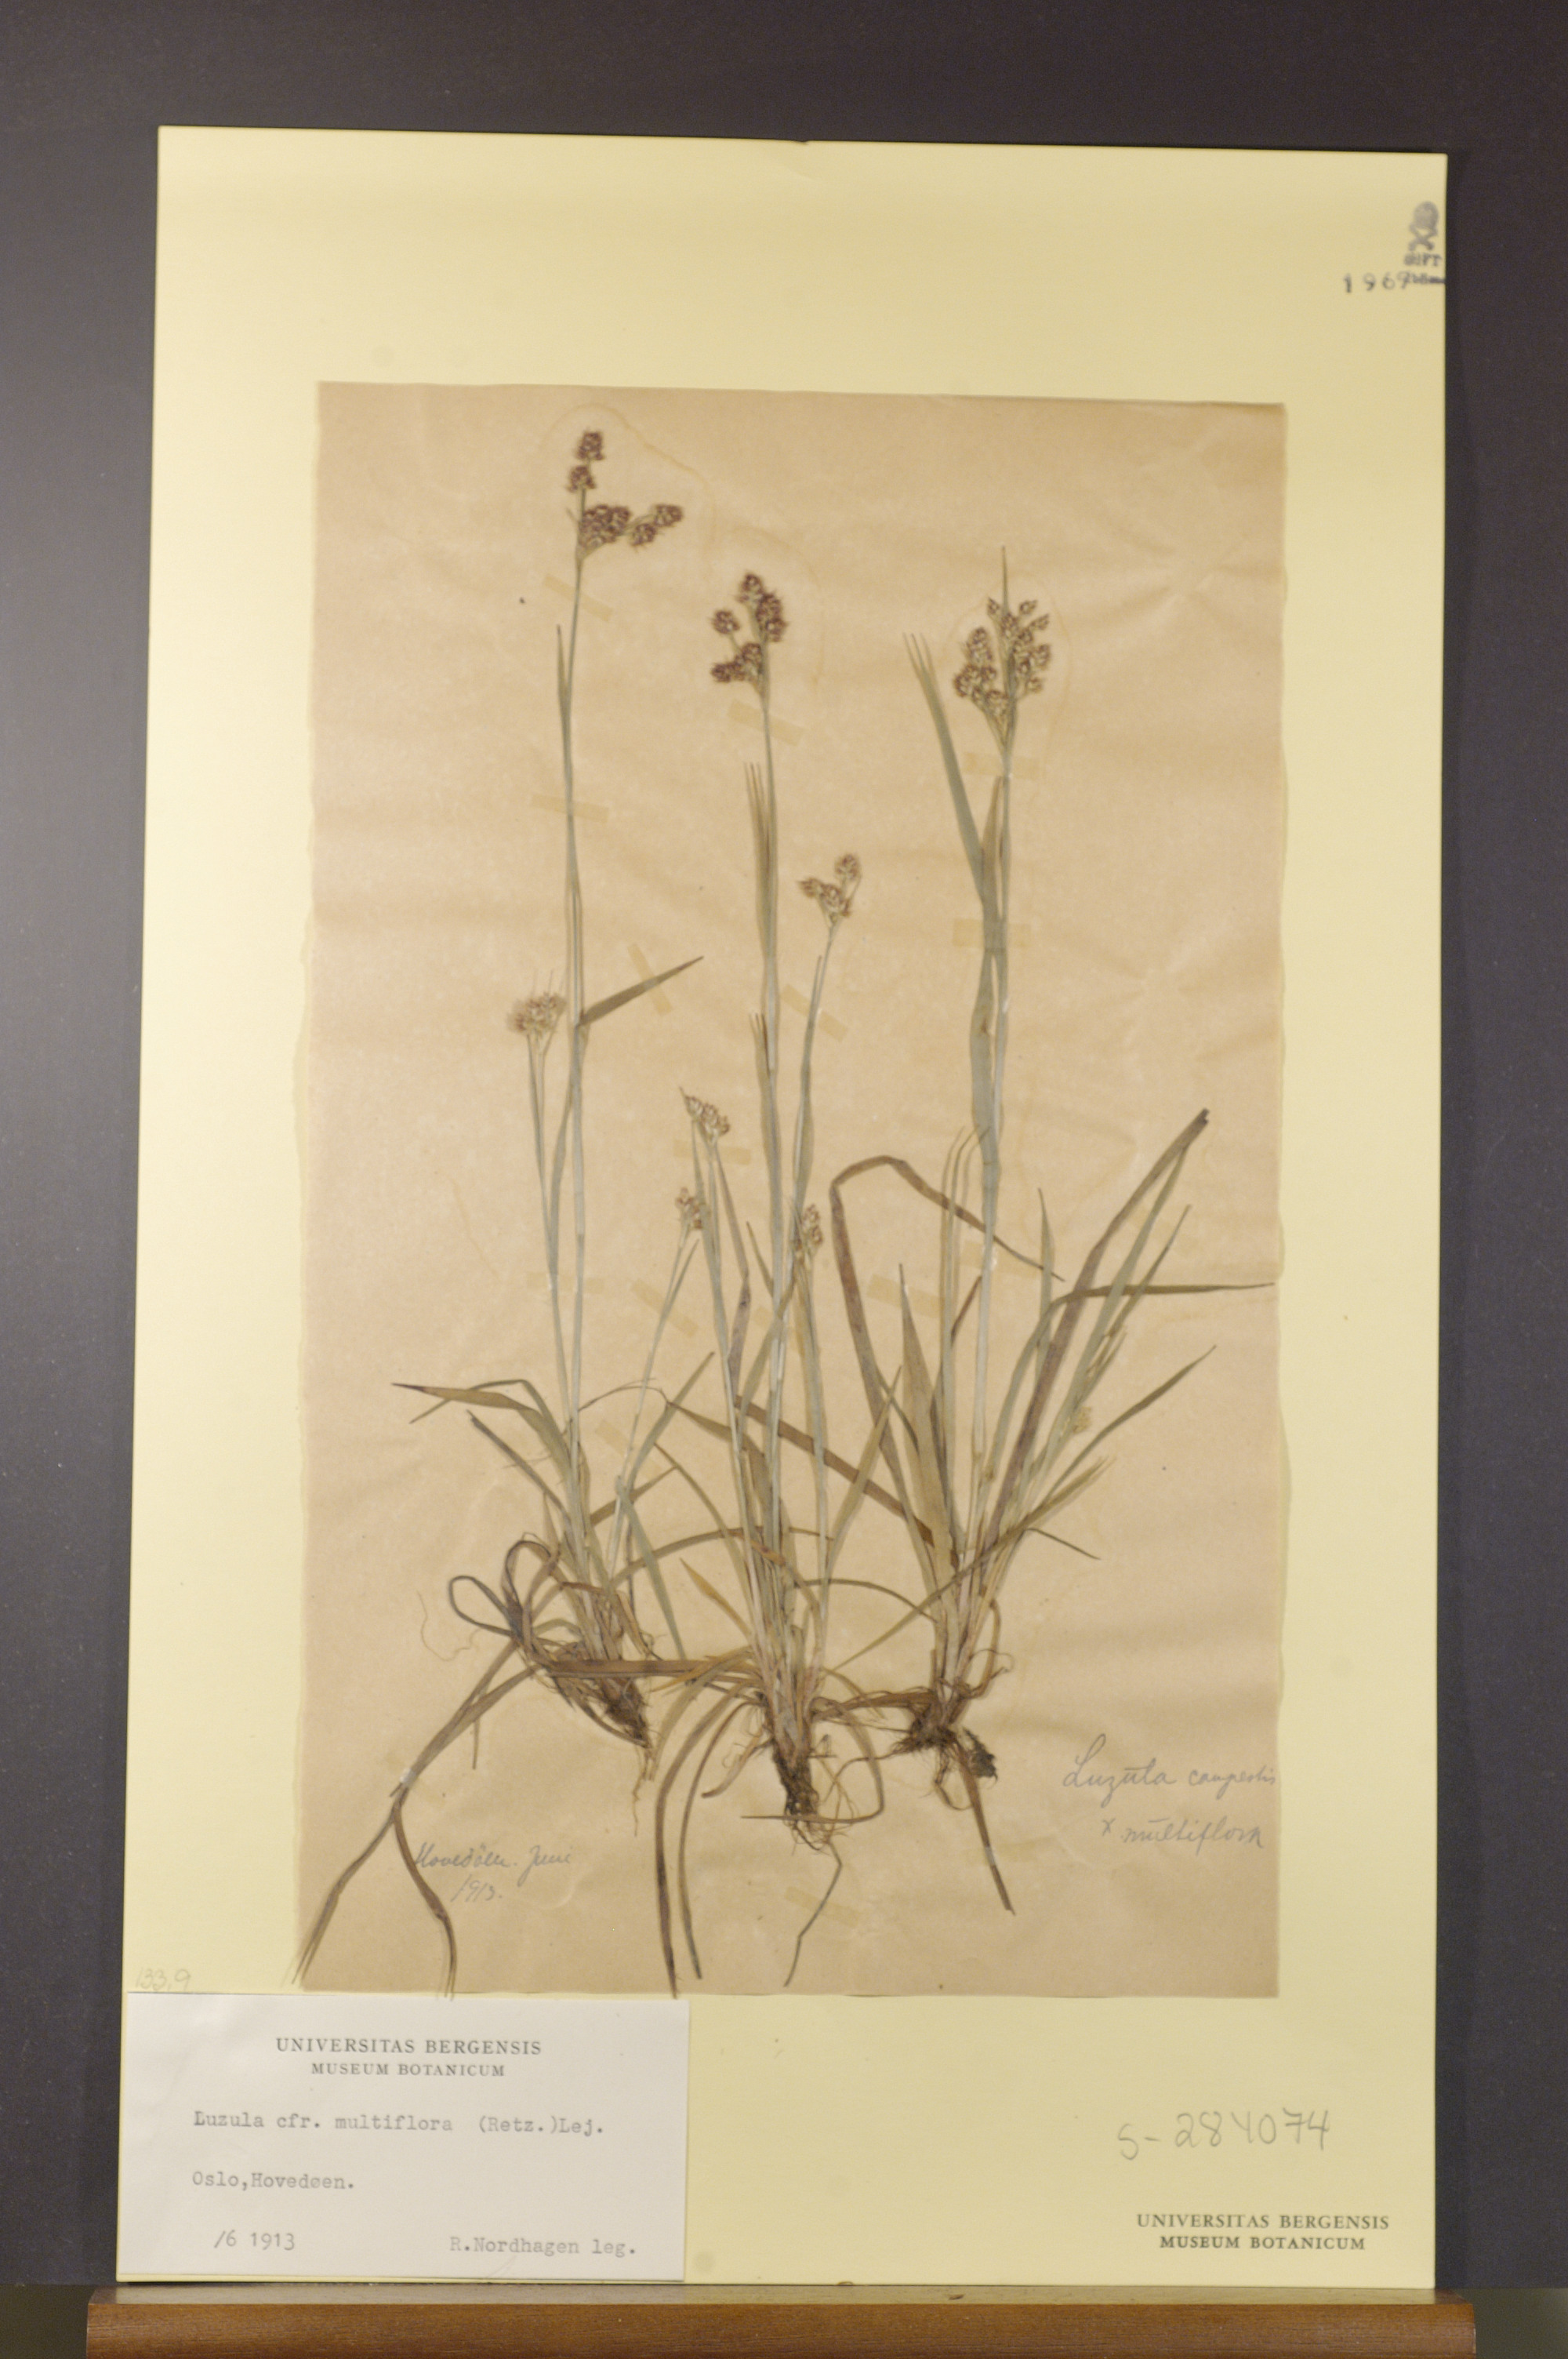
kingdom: Plantae
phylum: Tracheophyta
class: Liliopsida
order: Poales
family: Juncaceae
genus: Luzula
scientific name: Luzula multiflora
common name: Heath wood-rush
